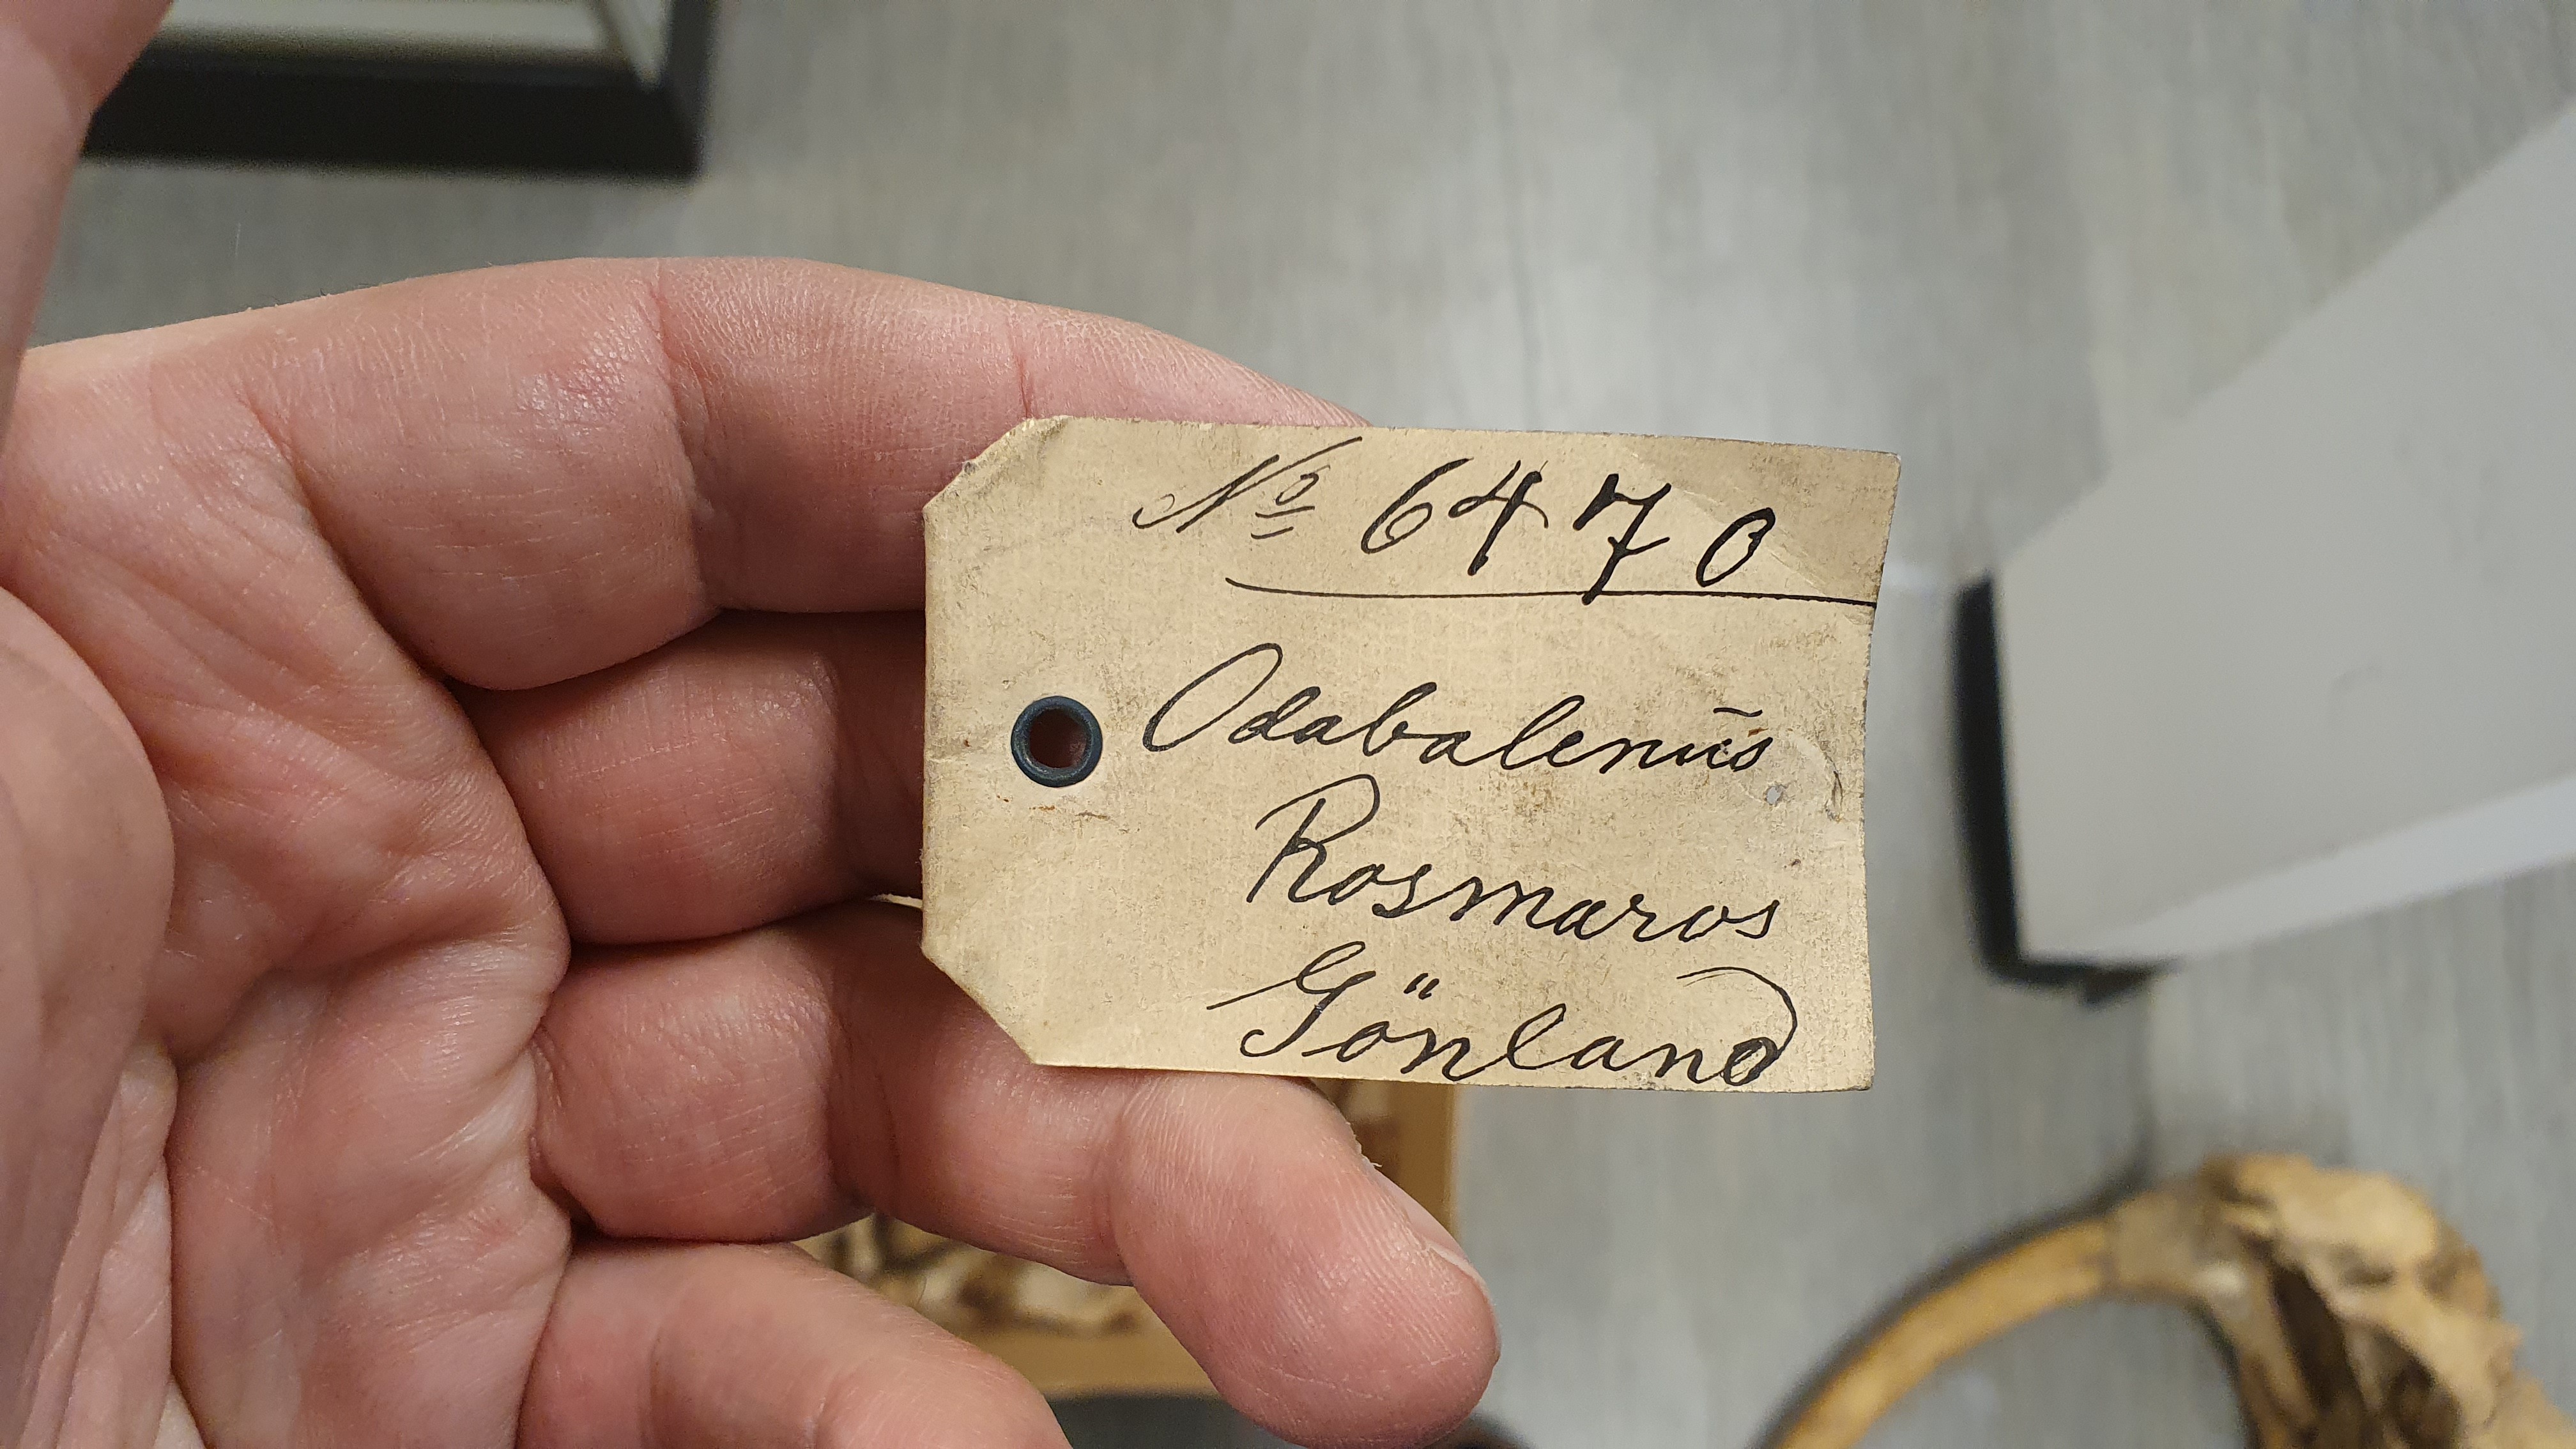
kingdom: Animalia
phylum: Chordata
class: Mammalia
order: Carnivora
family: Odobenidae
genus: Odobenus
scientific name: Odobenus rosmarus
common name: Walrus
